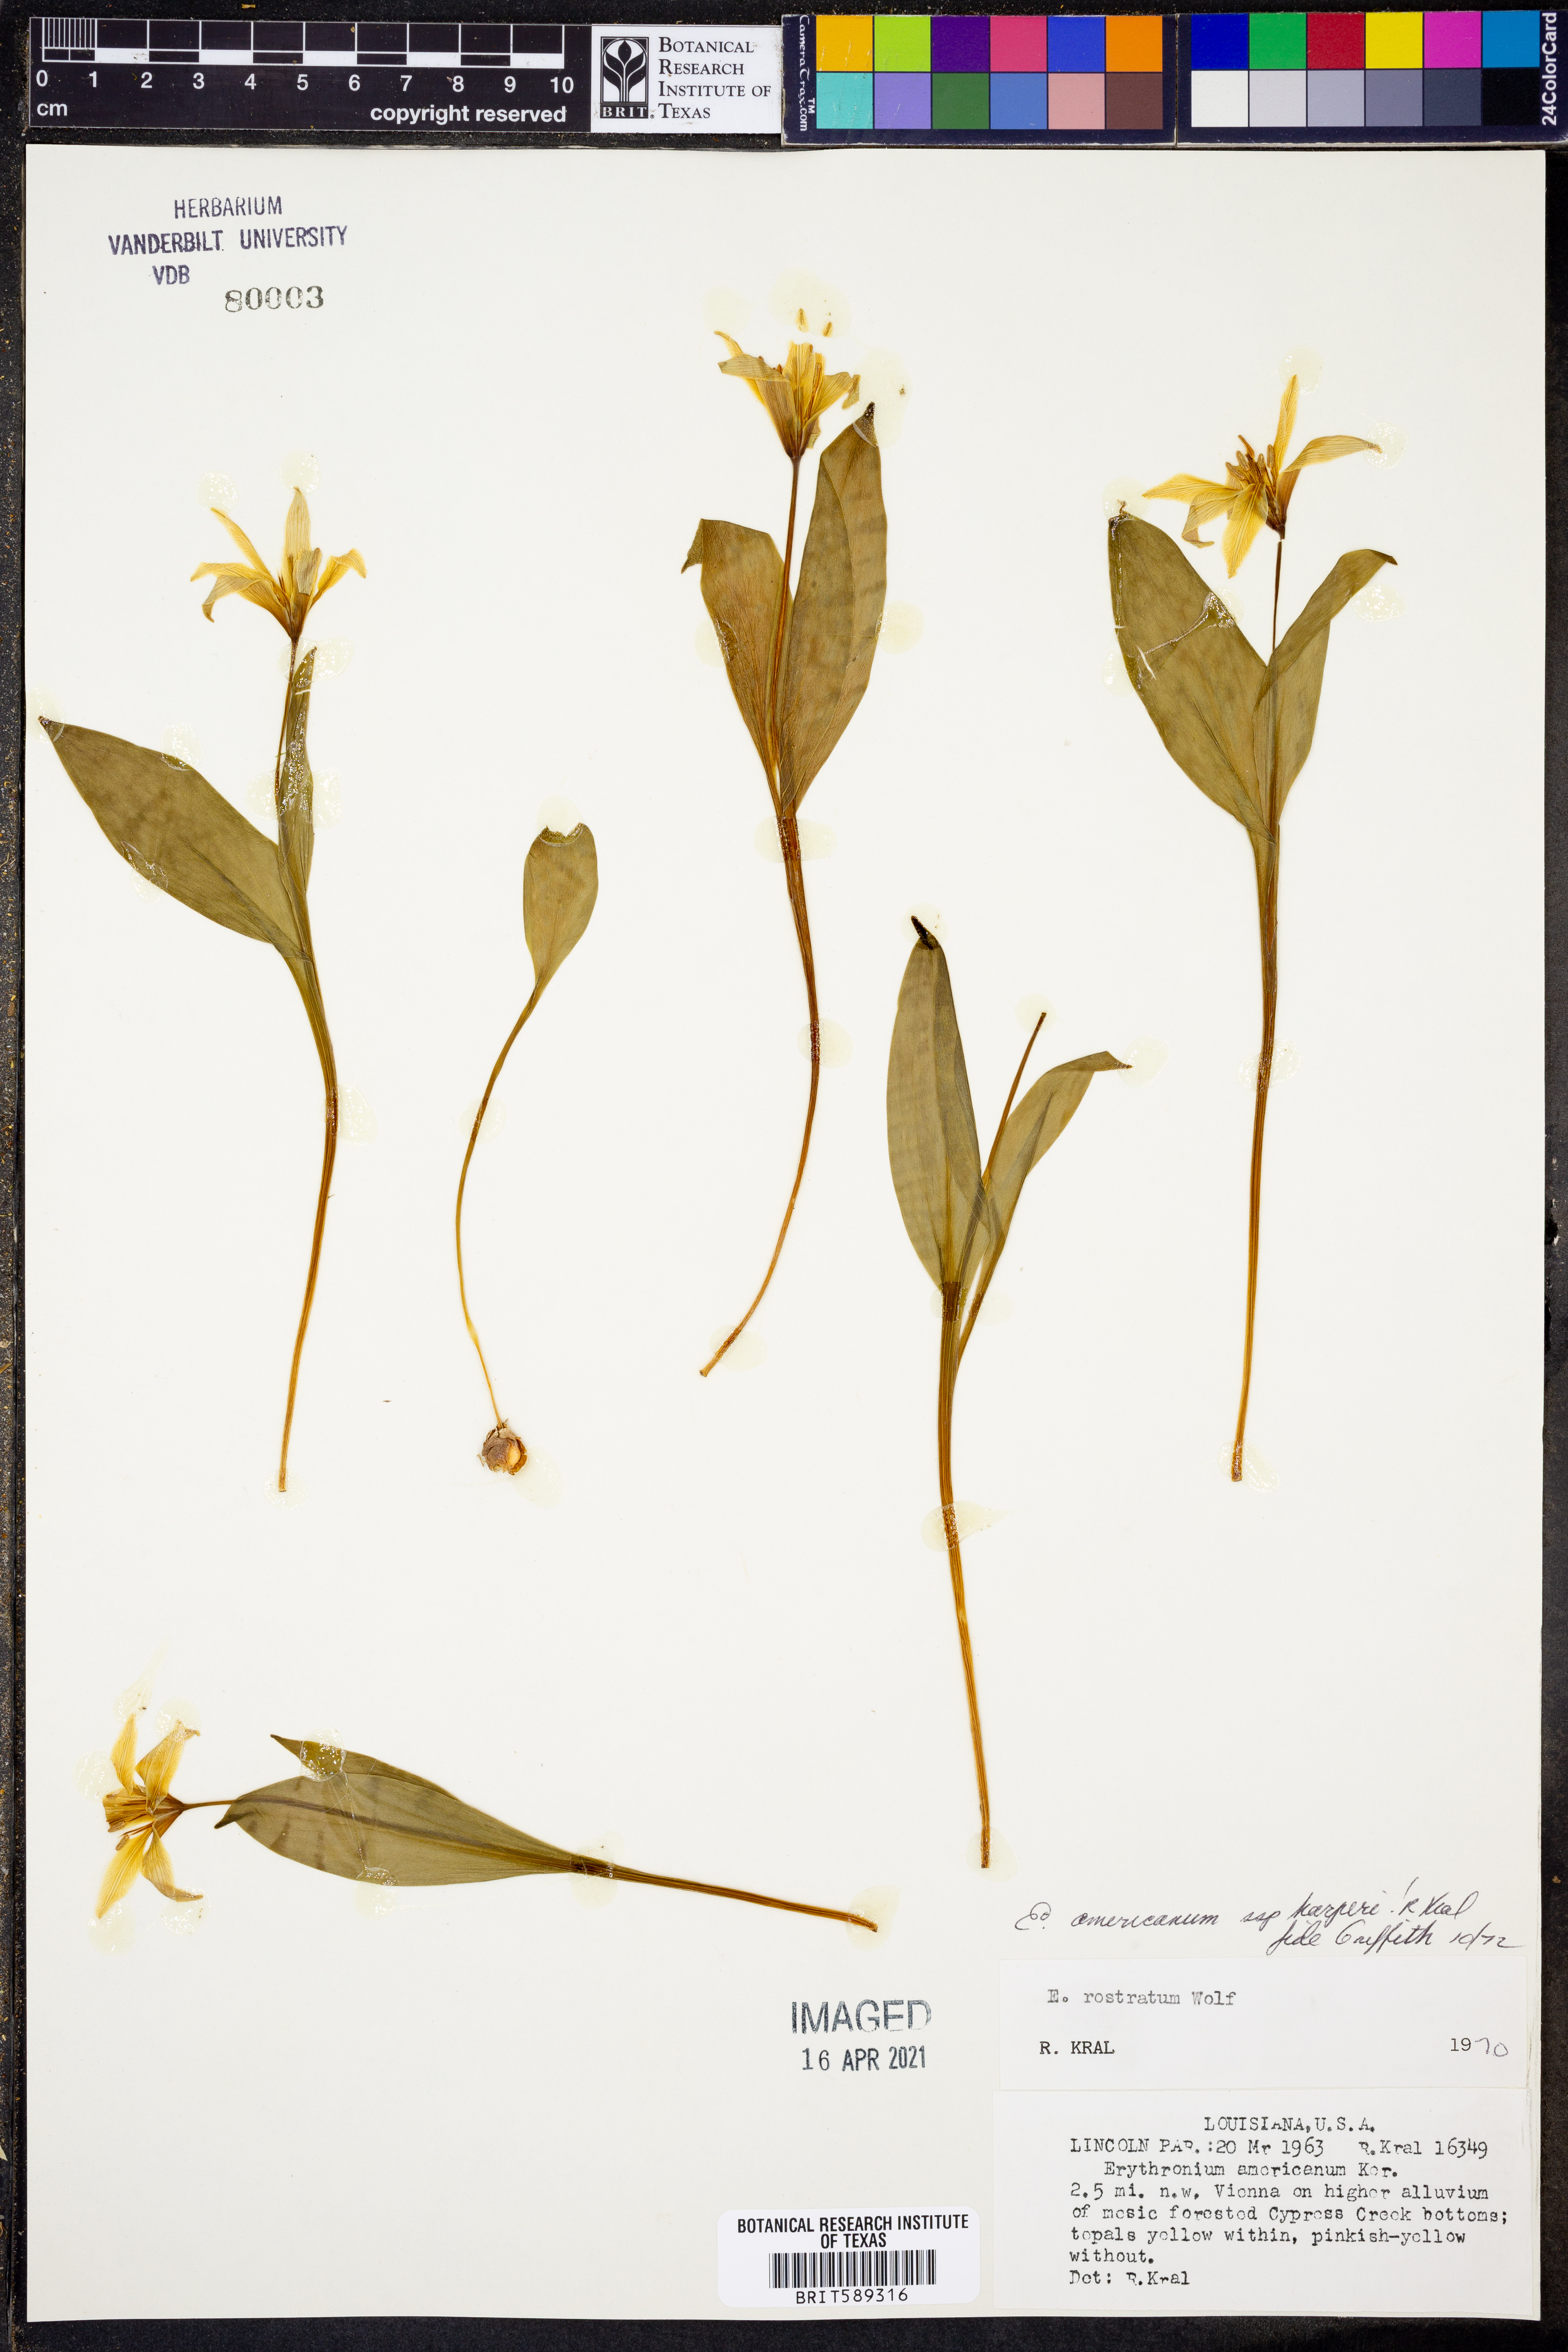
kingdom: Plantae
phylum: Tracheophyta
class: Liliopsida
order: Liliales
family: Liliaceae
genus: Erythronium
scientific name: Erythronium americanum
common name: Yellow adder's-tongue
